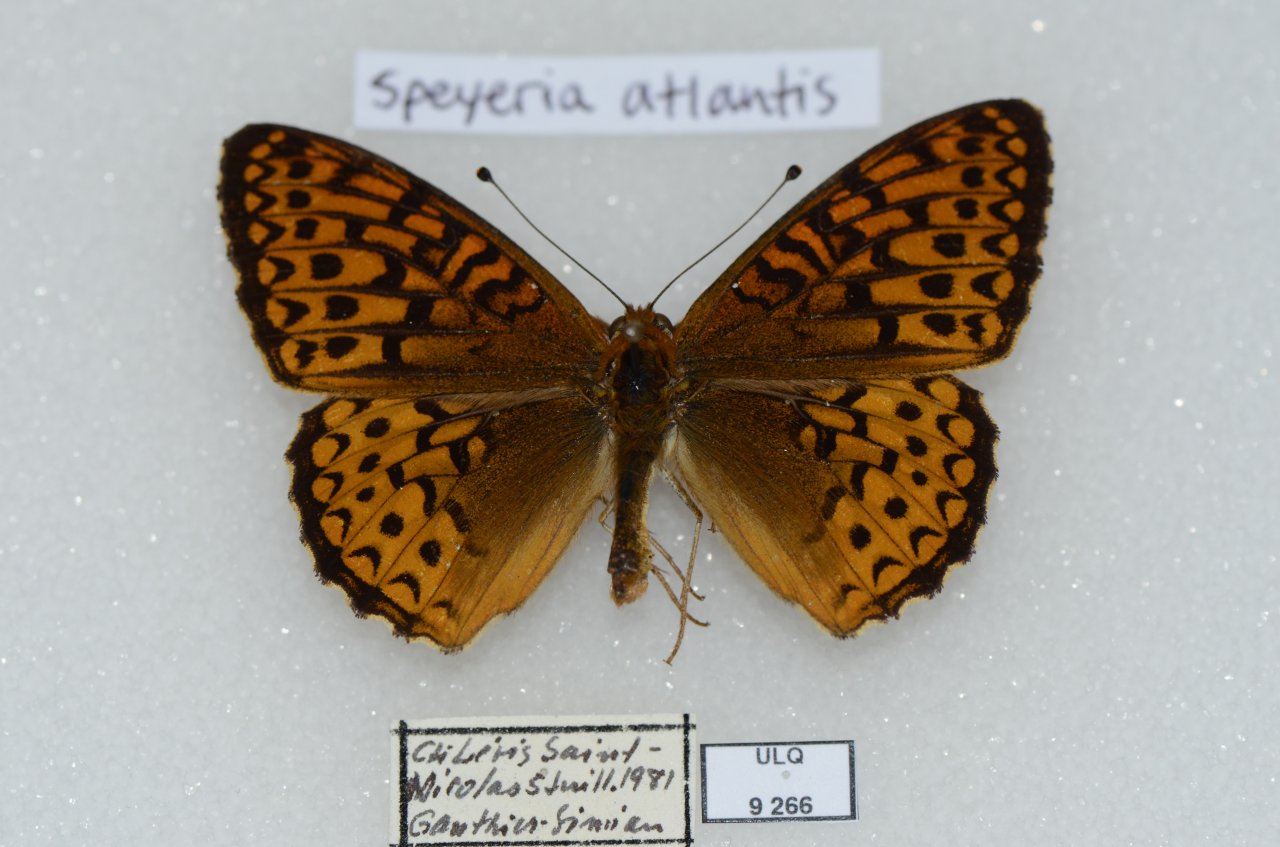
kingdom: Animalia
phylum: Arthropoda
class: Insecta
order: Lepidoptera
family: Nymphalidae
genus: Speyeria
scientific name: Speyeria atlantis
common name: Atlantis Fritillary
